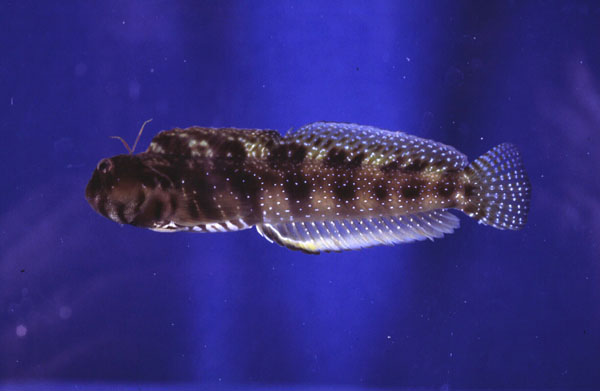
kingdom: Animalia
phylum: Chordata
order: Perciformes
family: Blenniidae
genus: Antennablennius
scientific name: Antennablennius bifilum
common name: Horned rockskipper
